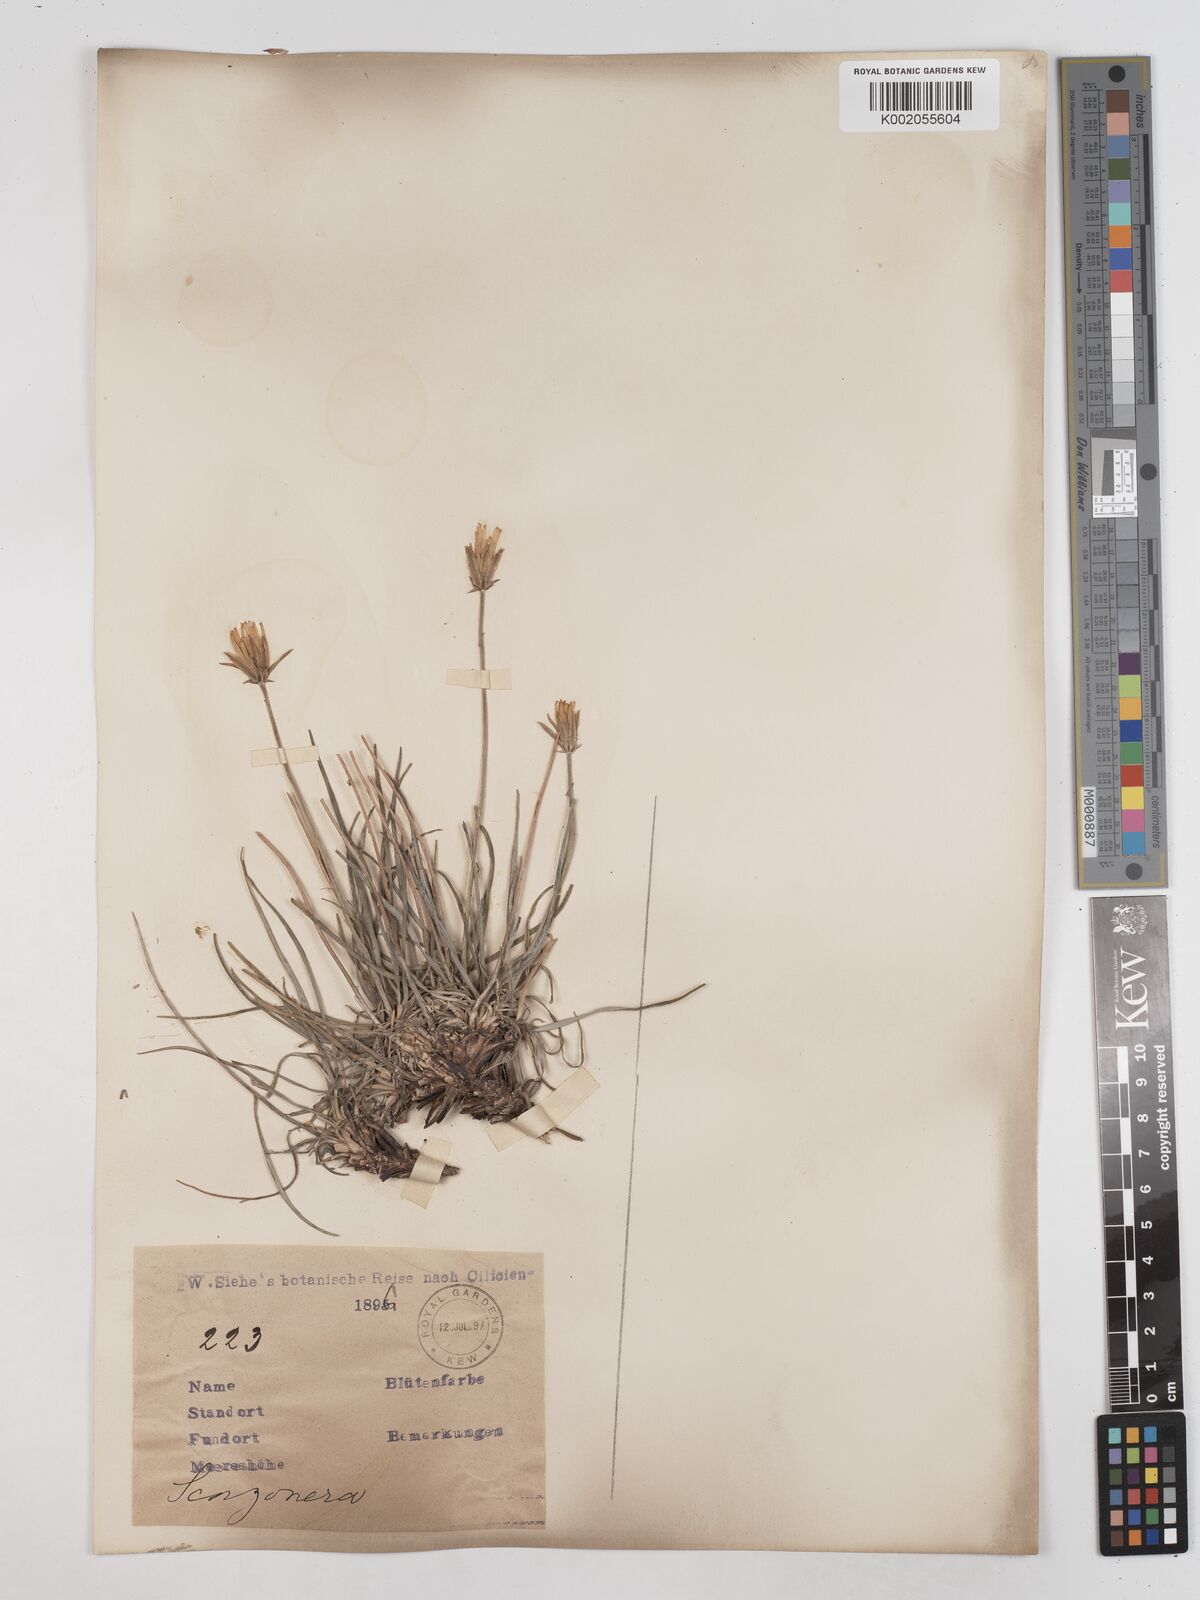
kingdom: Plantae
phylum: Tracheophyta
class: Magnoliopsida
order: Asterales
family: Asteraceae
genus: Goekyighitia
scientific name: Goekyighitia rigida
